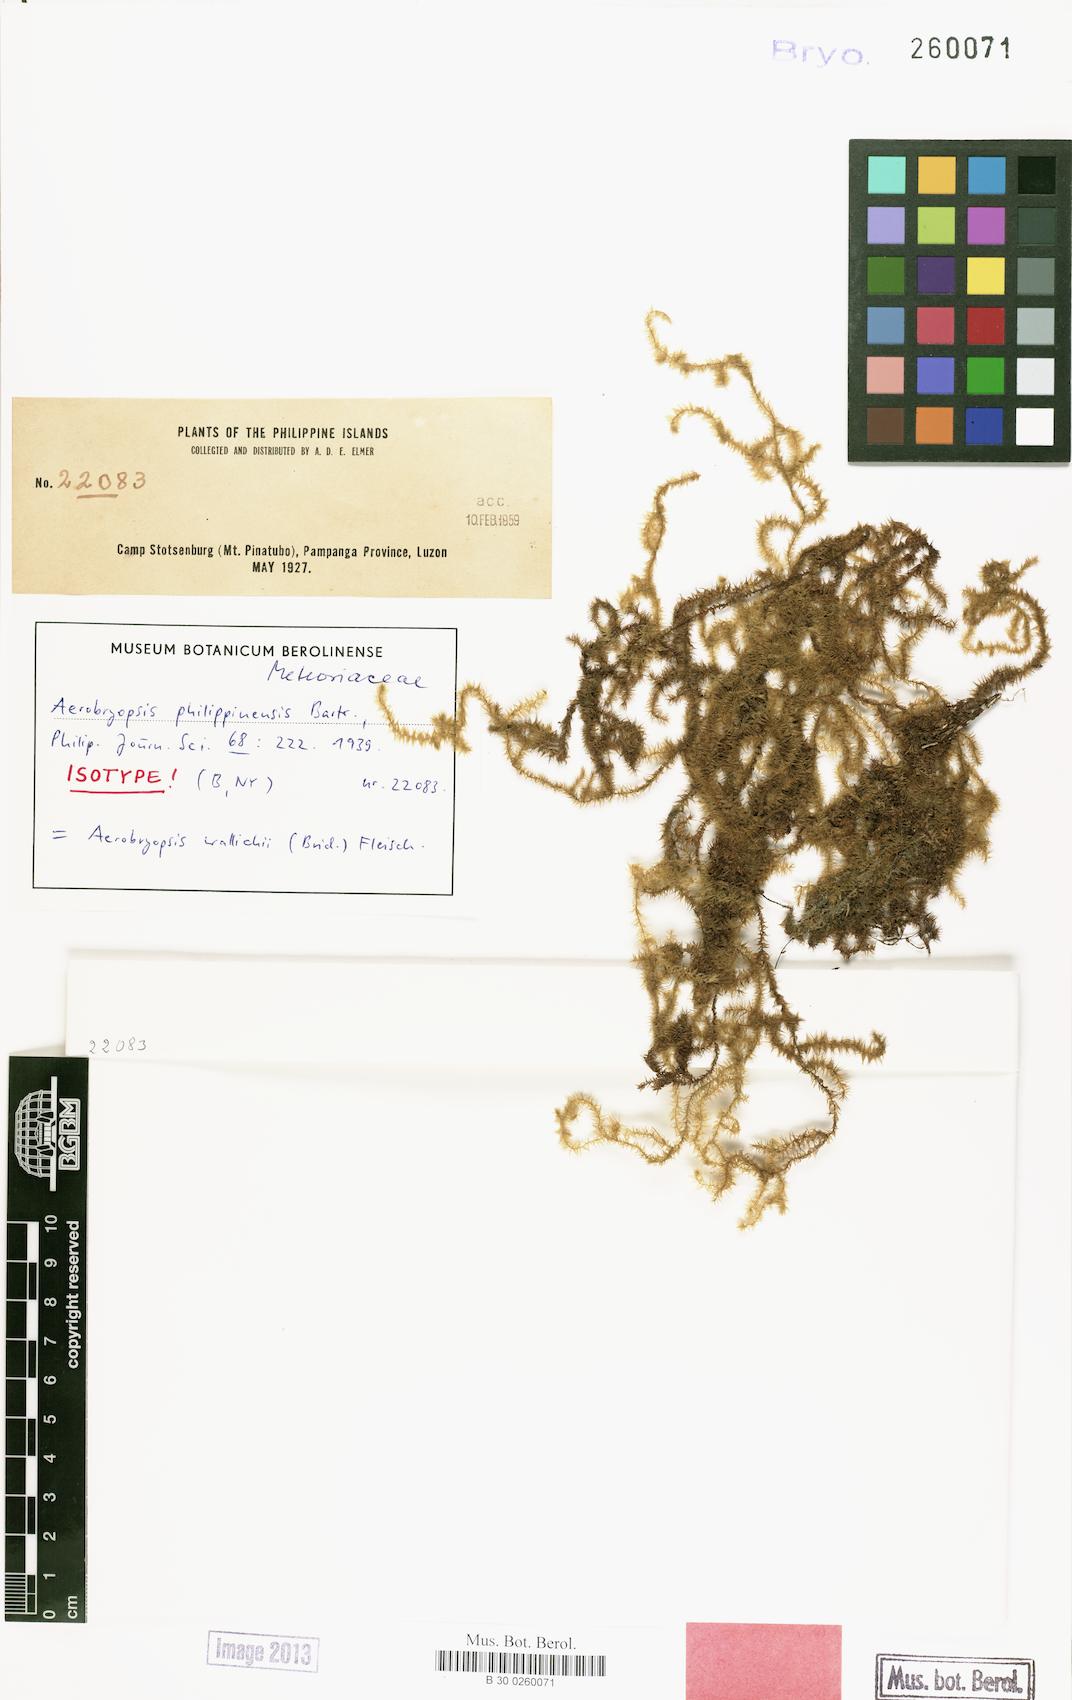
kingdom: Plantae
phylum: Bryophyta
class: Bryopsida
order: Hypnales
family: Meteoriaceae
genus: Pseudotrachypus
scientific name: Pseudotrachypus wallichii
